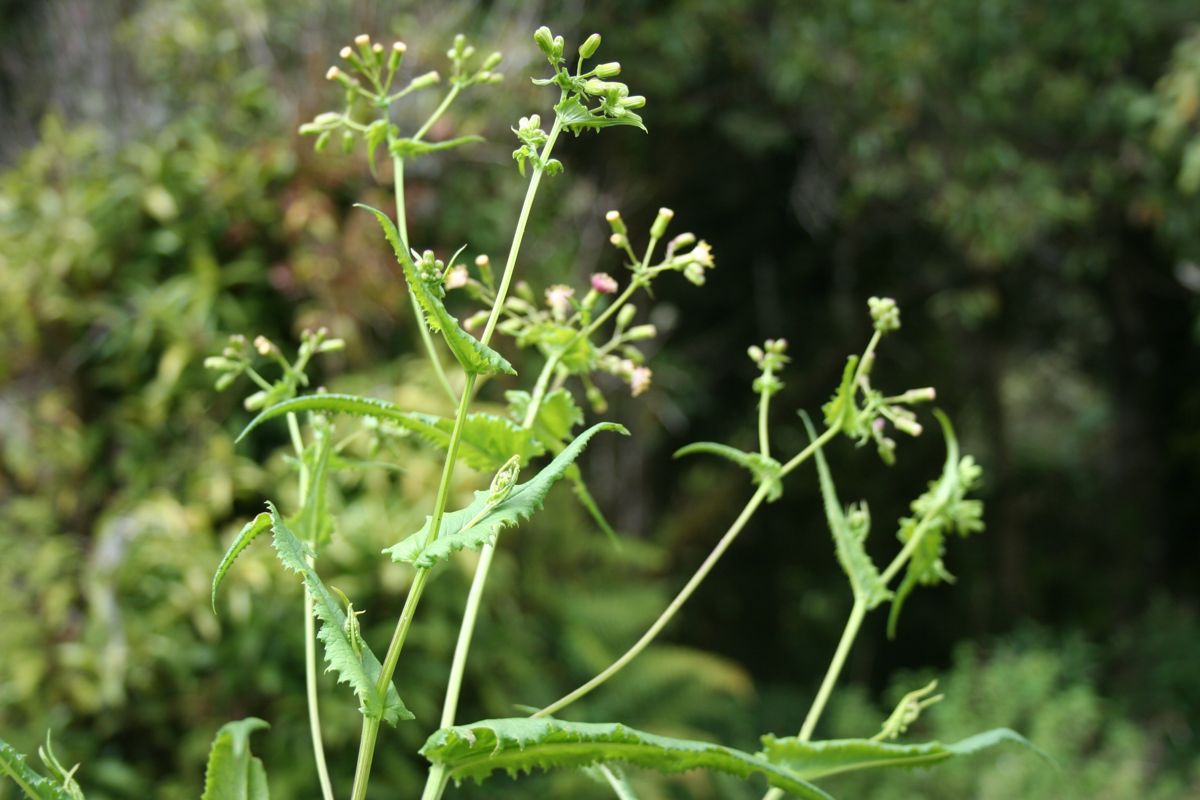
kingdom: Plantae
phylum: Tracheophyta
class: Magnoliopsida
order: Asterales
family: Asteraceae
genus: Erechtites
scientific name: Erechtites hieraciifolius
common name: American burnweed
